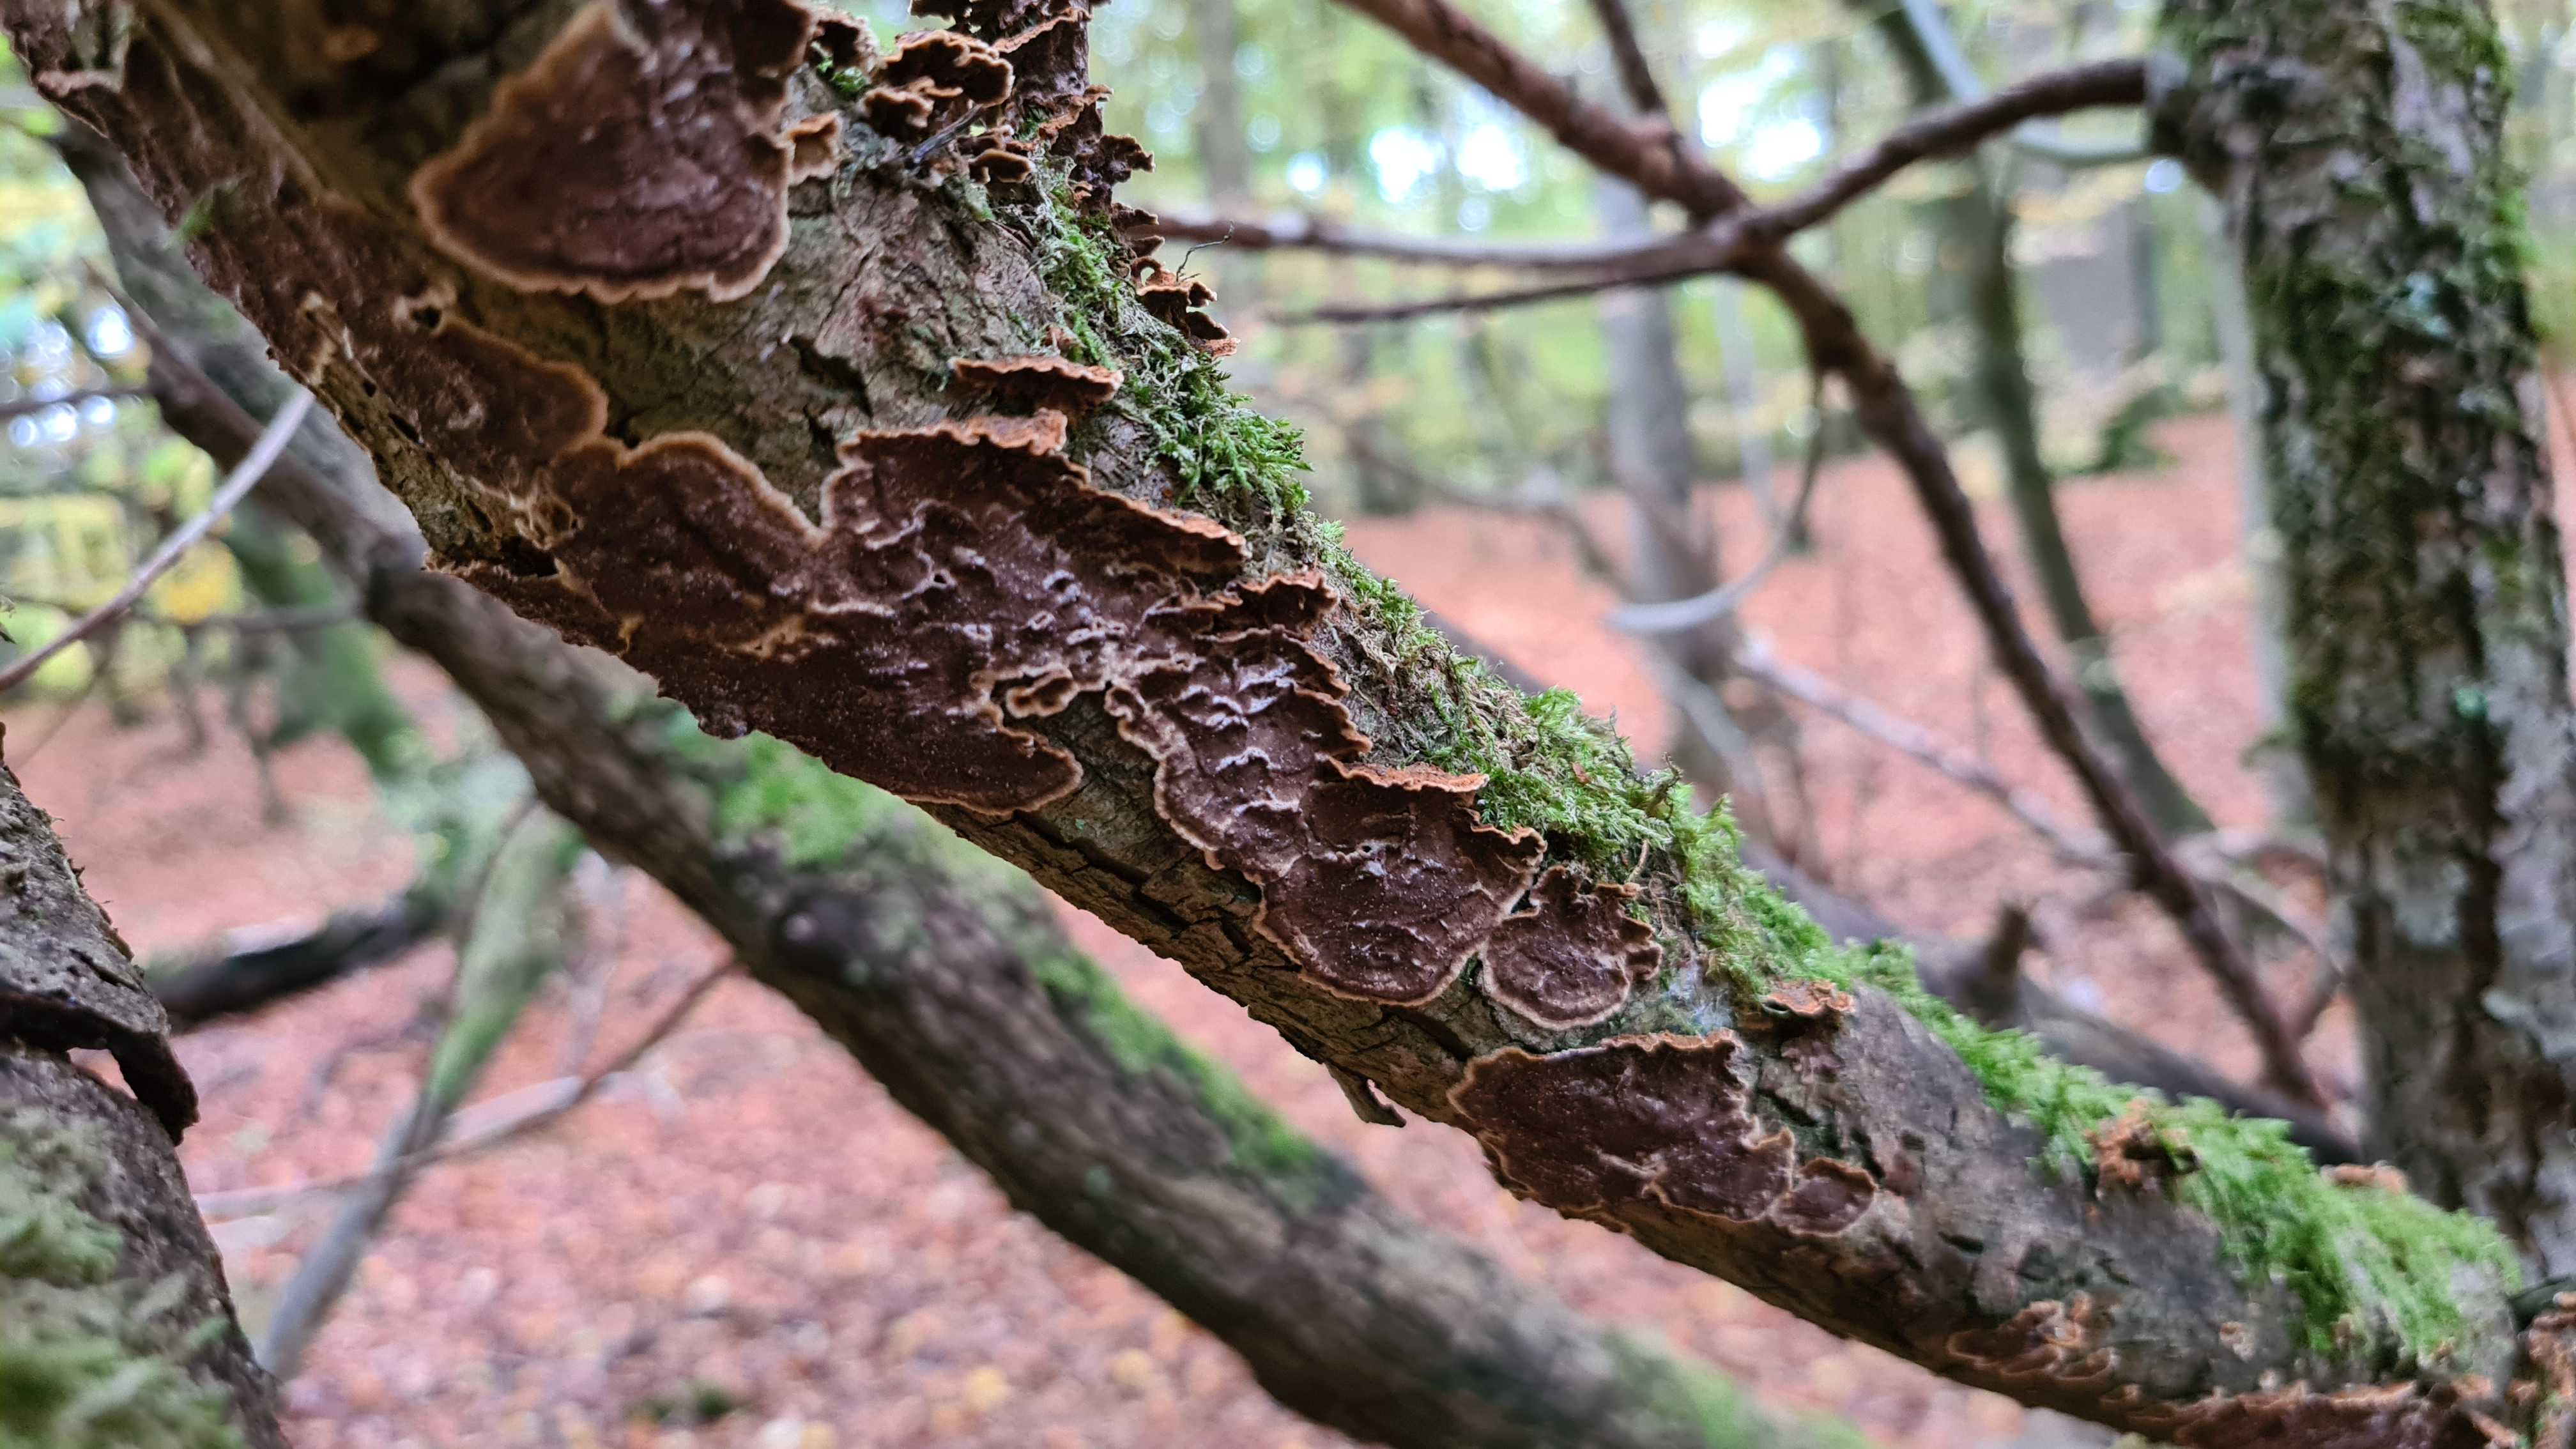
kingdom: Fungi
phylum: Basidiomycota
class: Agaricomycetes
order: Hymenochaetales
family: Hymenochaetaceae
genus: Hydnoporia
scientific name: Hydnoporia tabacina
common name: tobaksbrun ruslædersvamp
